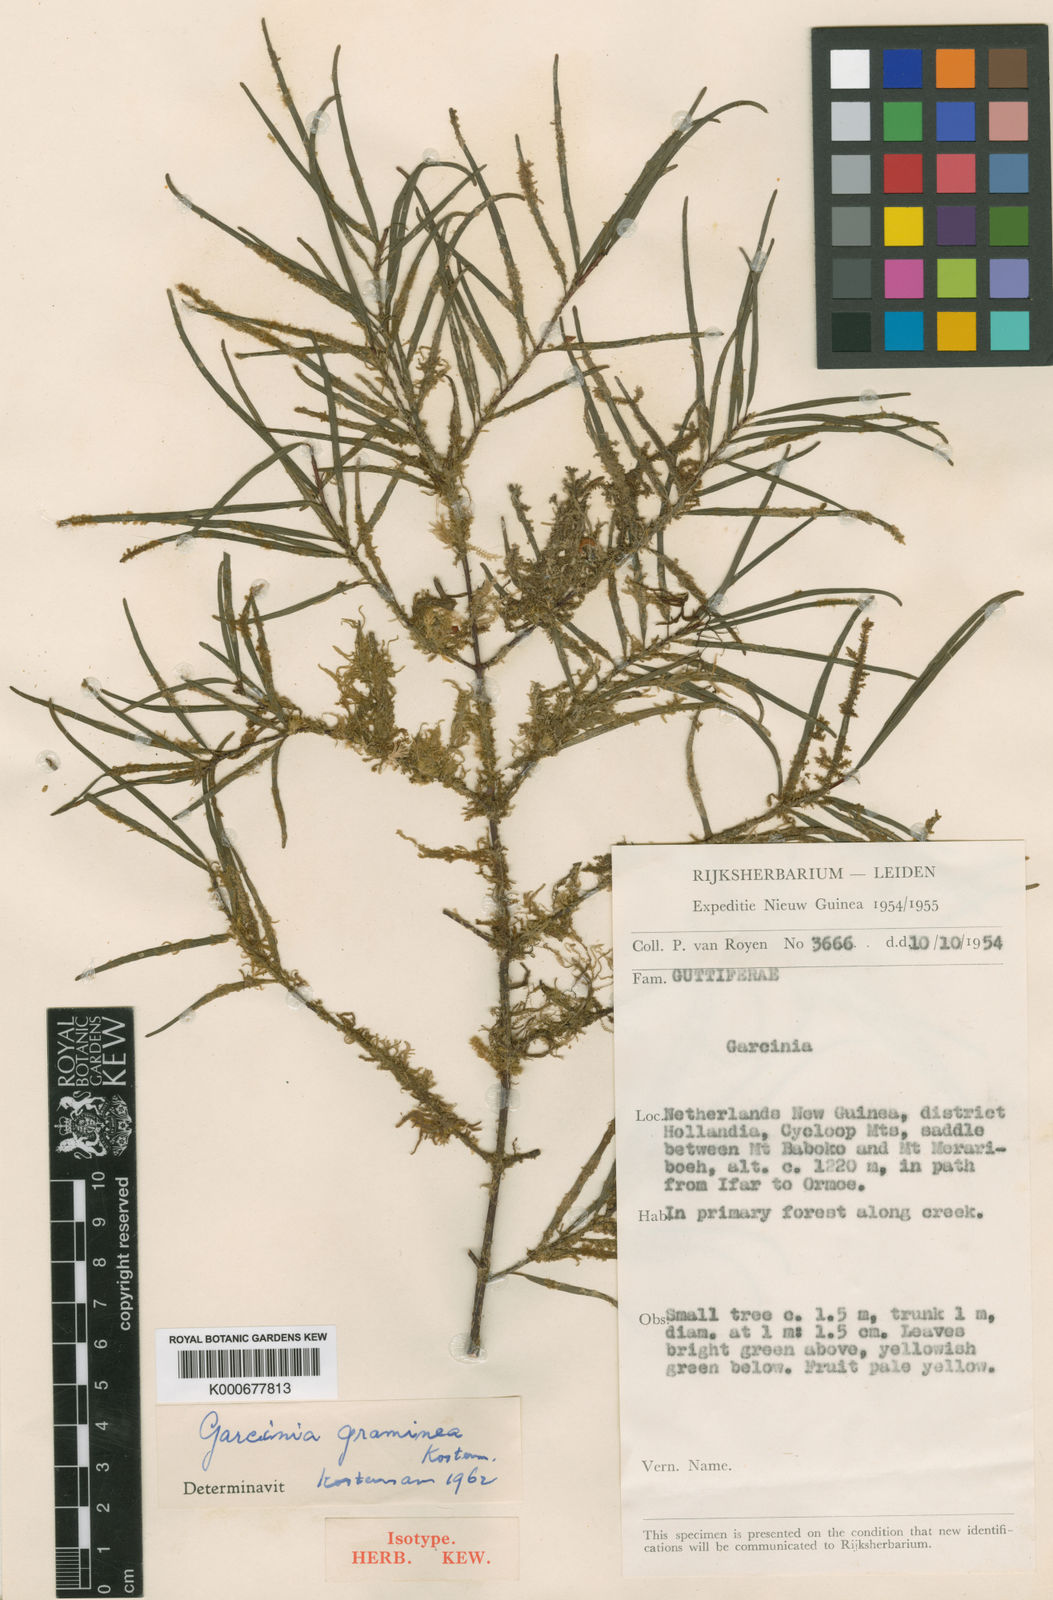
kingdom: Plantae
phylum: Tracheophyta
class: Magnoliopsida
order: Malpighiales
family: Clusiaceae
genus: Garcinia
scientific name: Garcinia graminea
